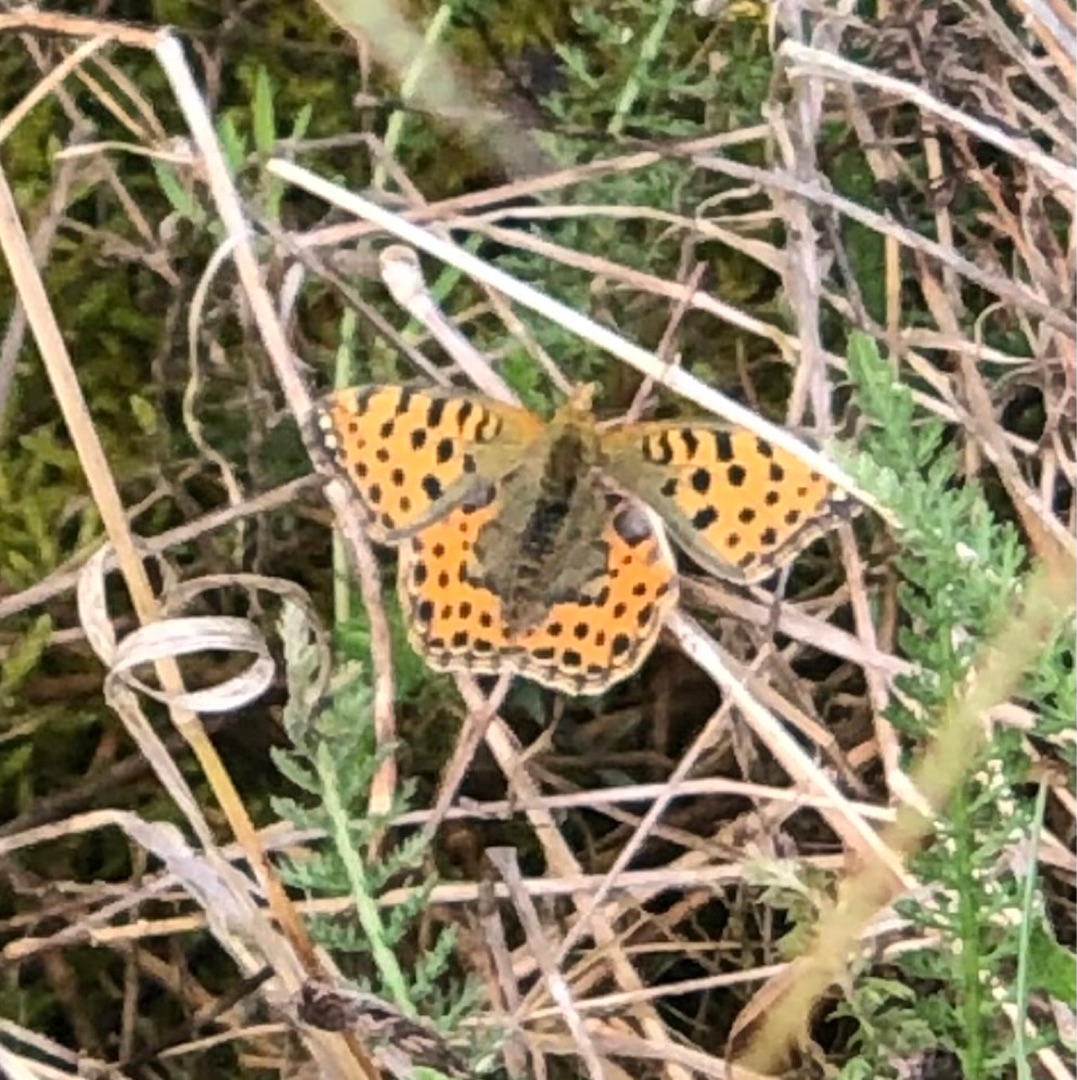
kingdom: Animalia
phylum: Arthropoda
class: Insecta
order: Lepidoptera
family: Nymphalidae
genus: Issoria
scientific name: Issoria lathonia
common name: Storplettet perlemorsommerfugl
